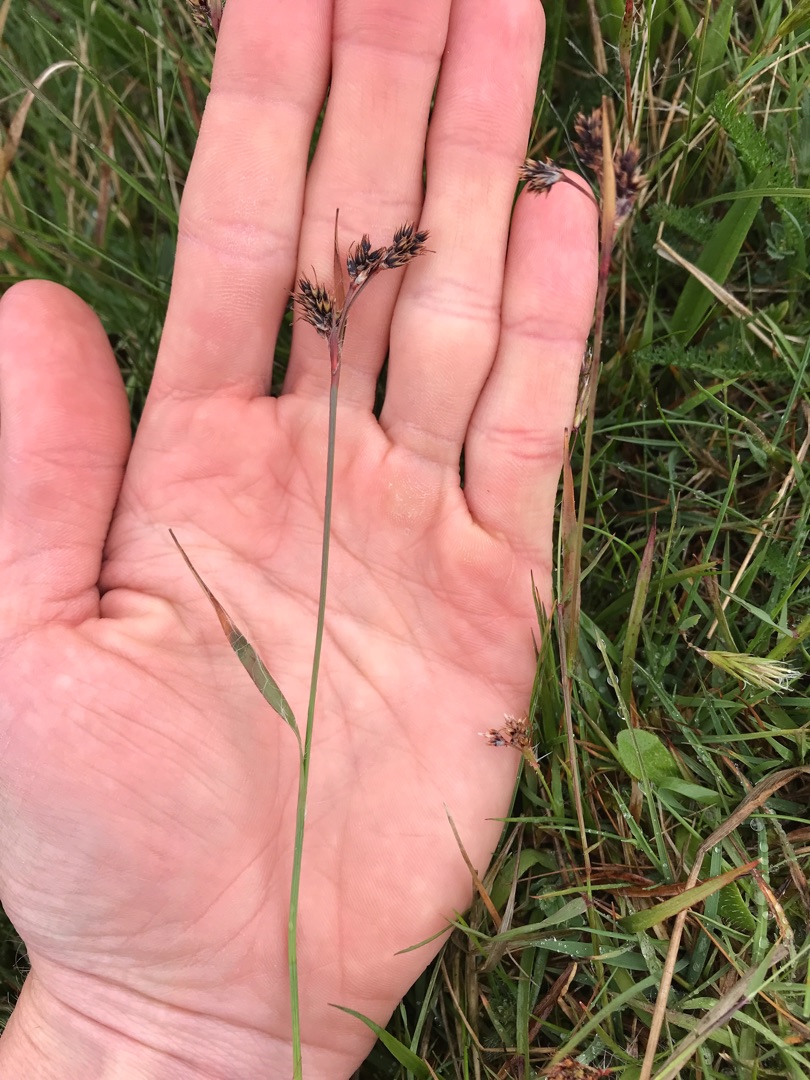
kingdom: Plantae
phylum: Tracheophyta
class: Liliopsida
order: Poales
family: Juncaceae
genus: Luzula
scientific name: Luzula campestris
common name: Mark-frytle
